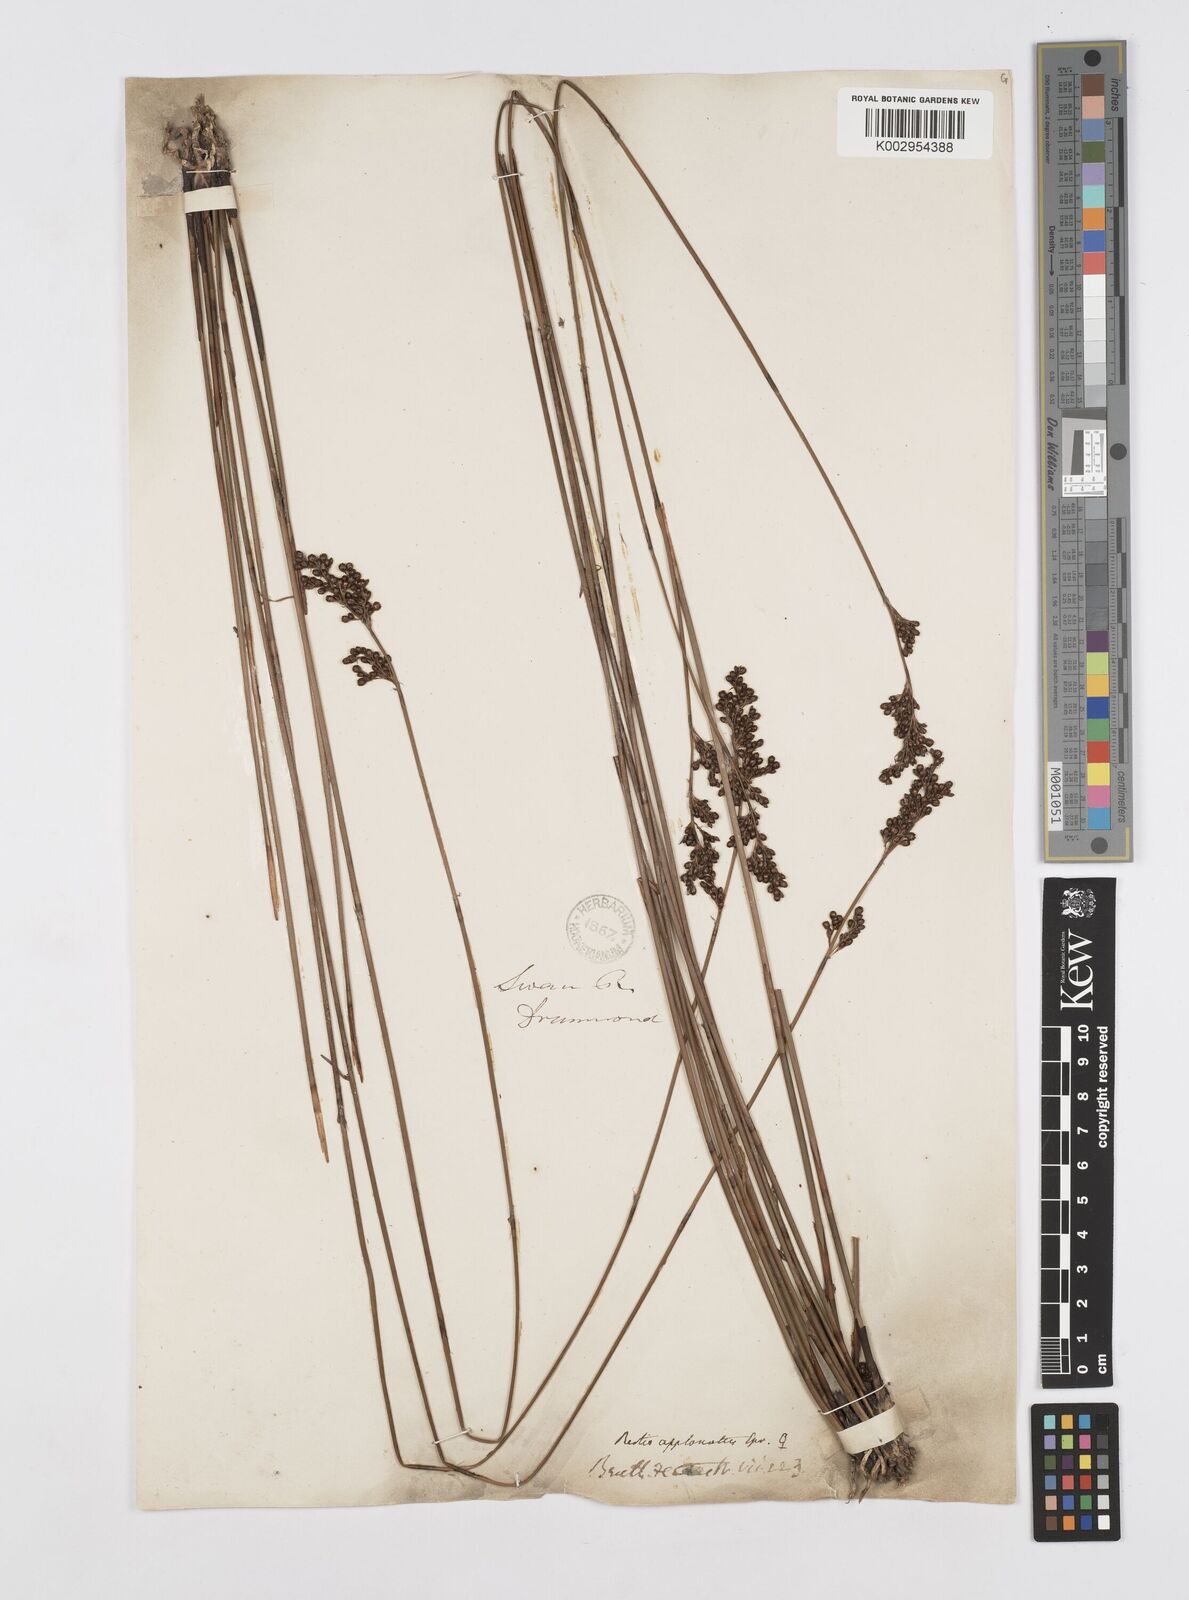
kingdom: Plantae
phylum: Tracheophyta
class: Liliopsida
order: Poales
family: Restionaceae
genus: Platychorda
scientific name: Platychorda applanata
